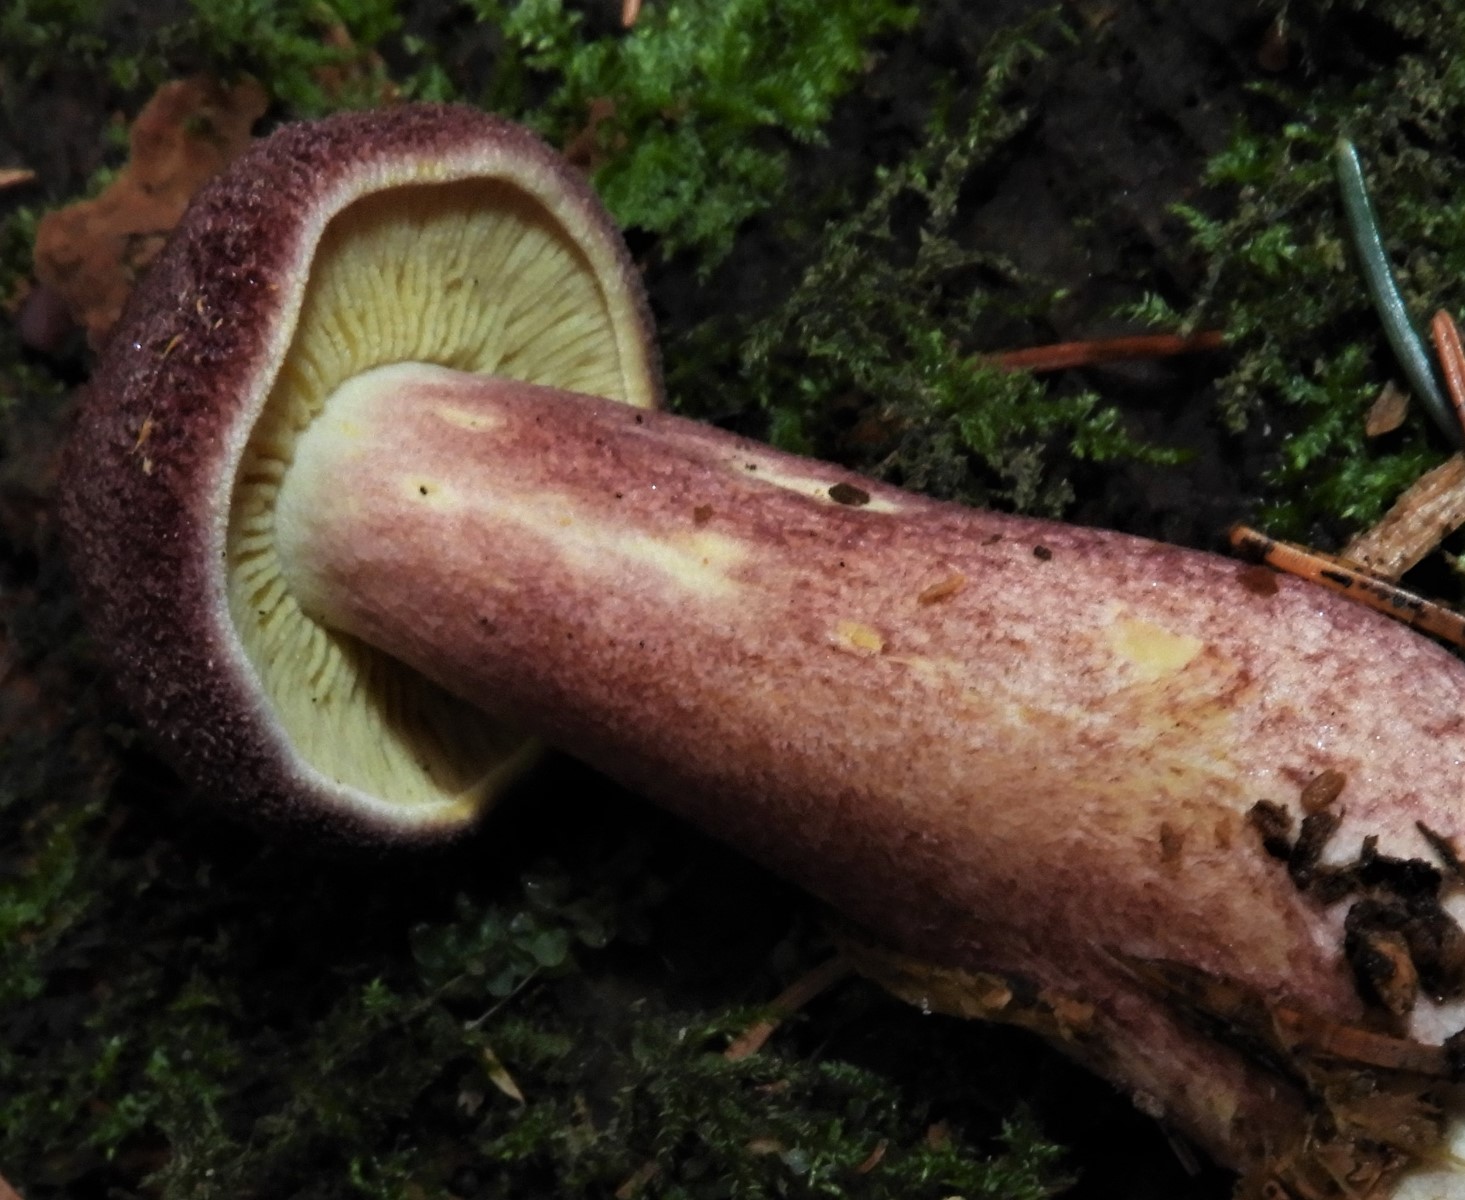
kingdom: Fungi
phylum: Basidiomycota
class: Agaricomycetes
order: Agaricales
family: Tricholomataceae
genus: Tricholomopsis
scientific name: Tricholomopsis rutilans
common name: purpur-væbnerhat
